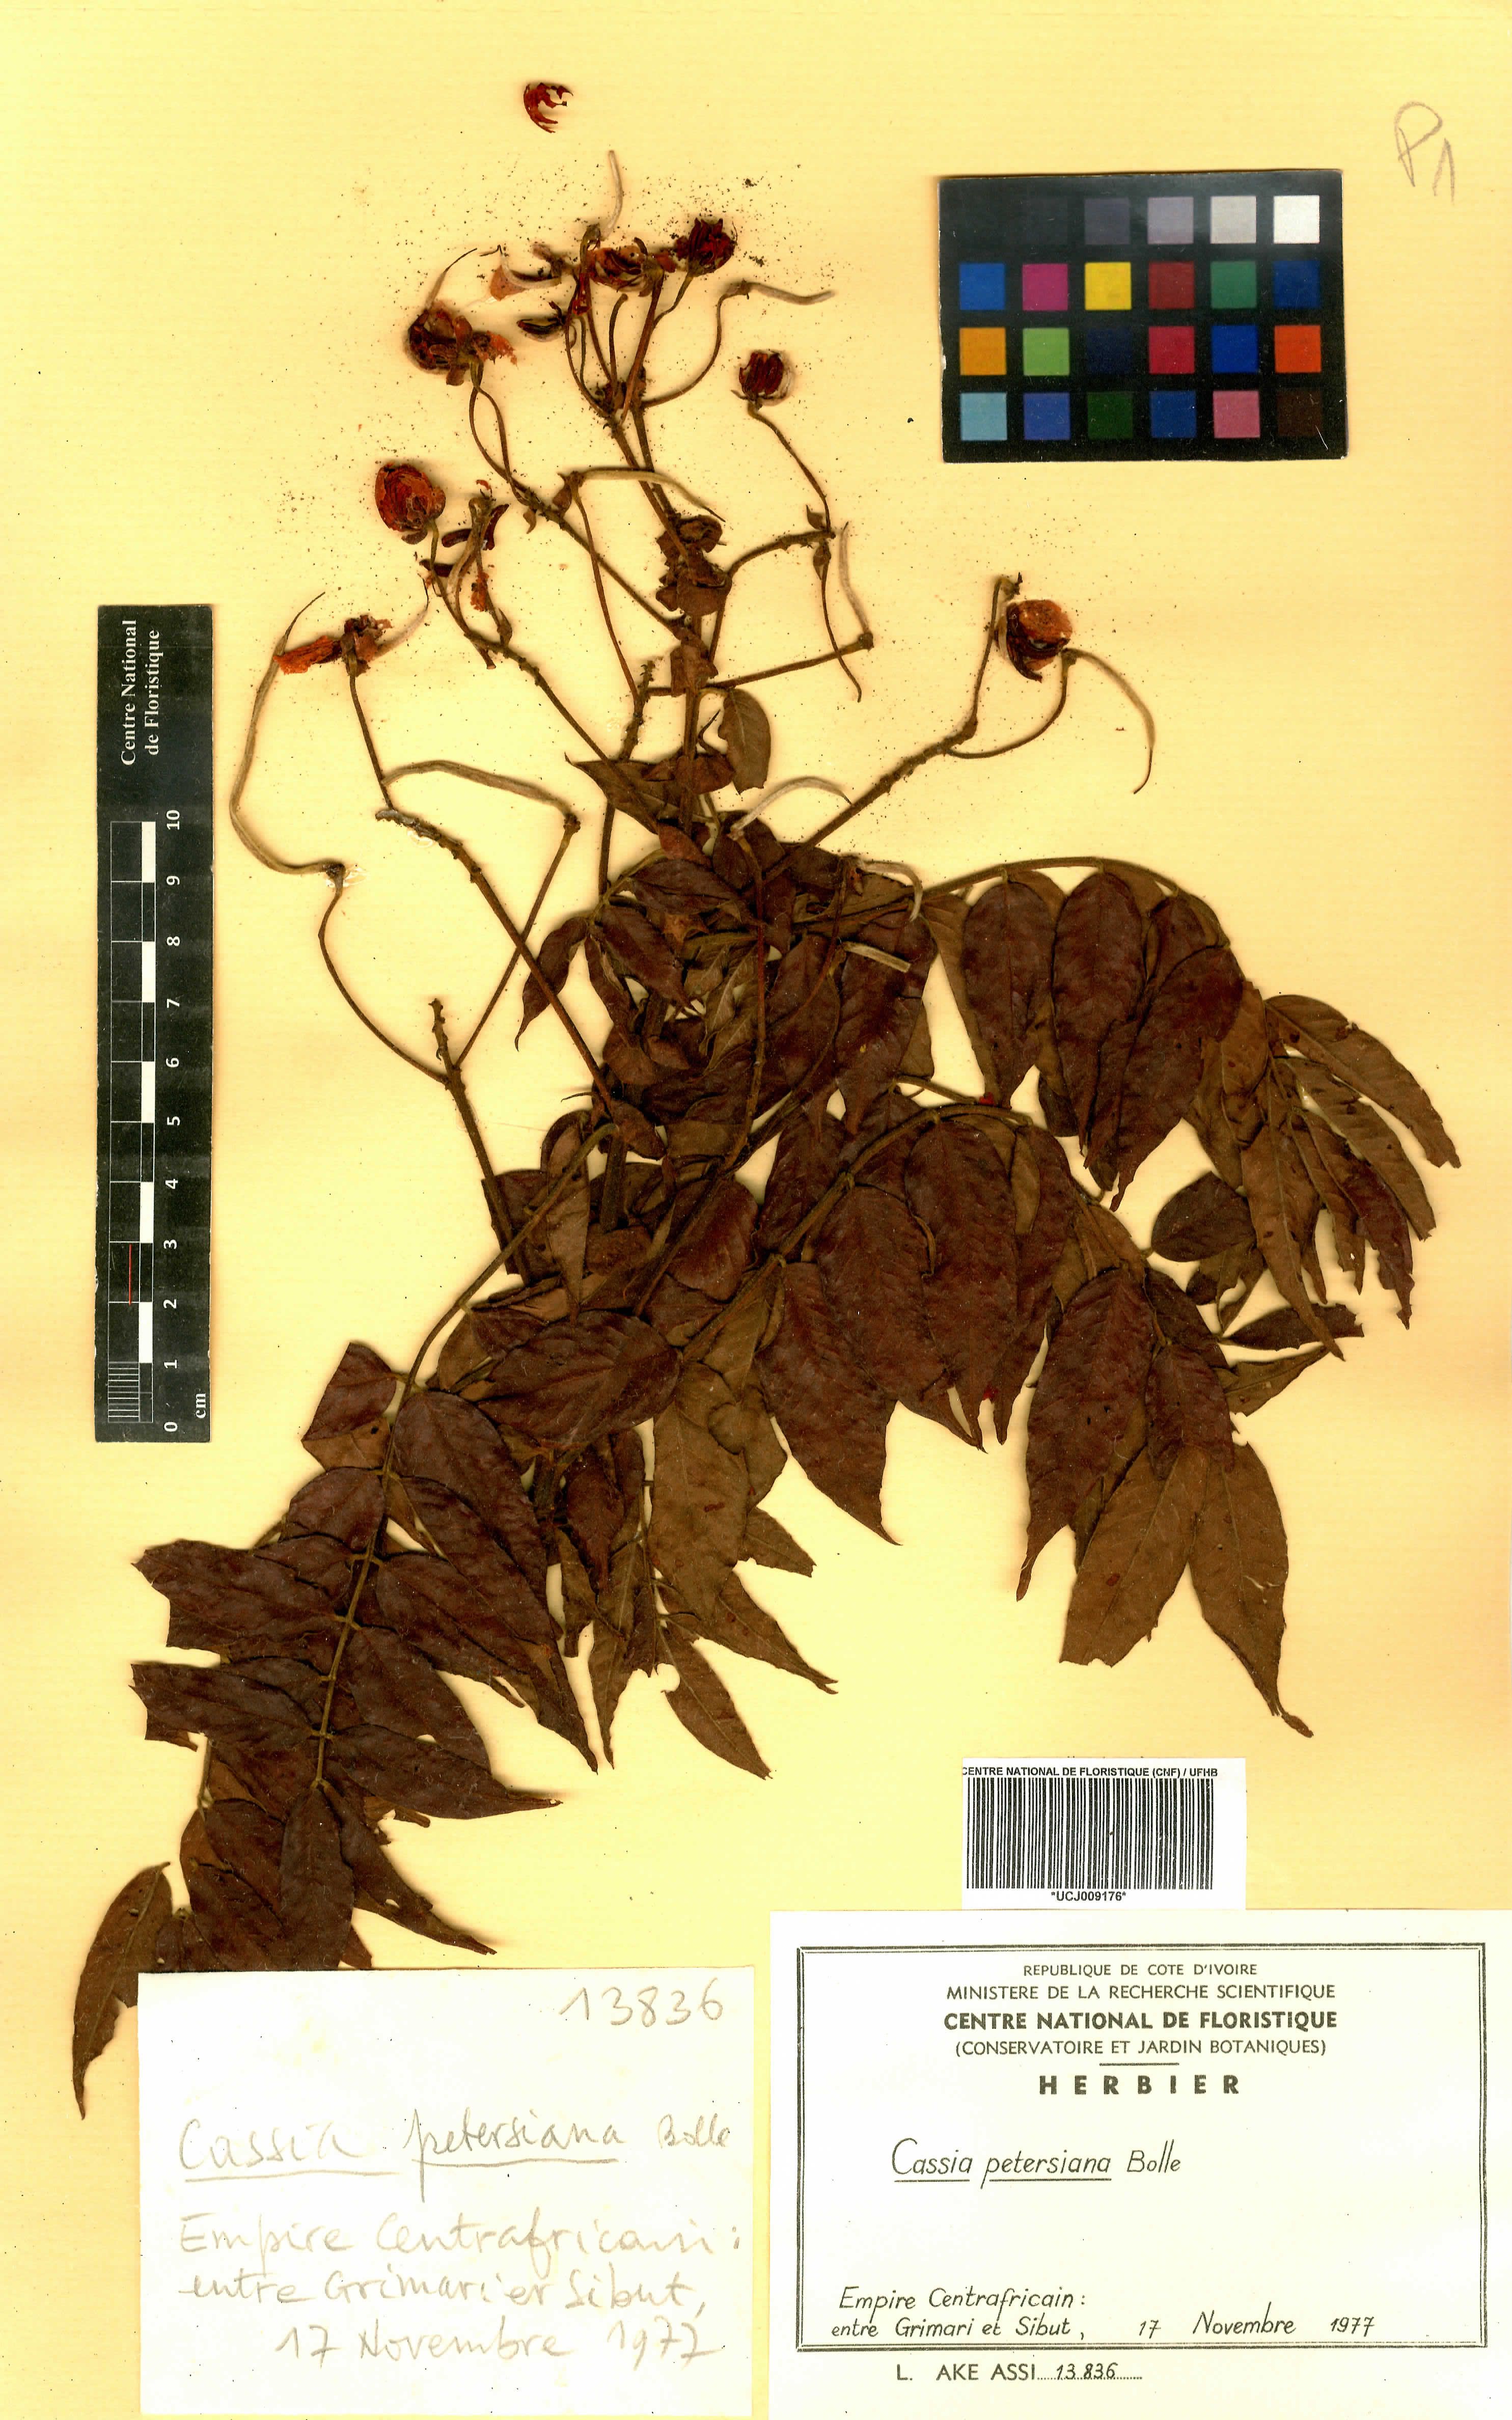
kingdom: Plantae
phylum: Tracheophyta
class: Magnoliopsida
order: Fabales
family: Fabaceae
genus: Senna
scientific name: Senna petersiana
